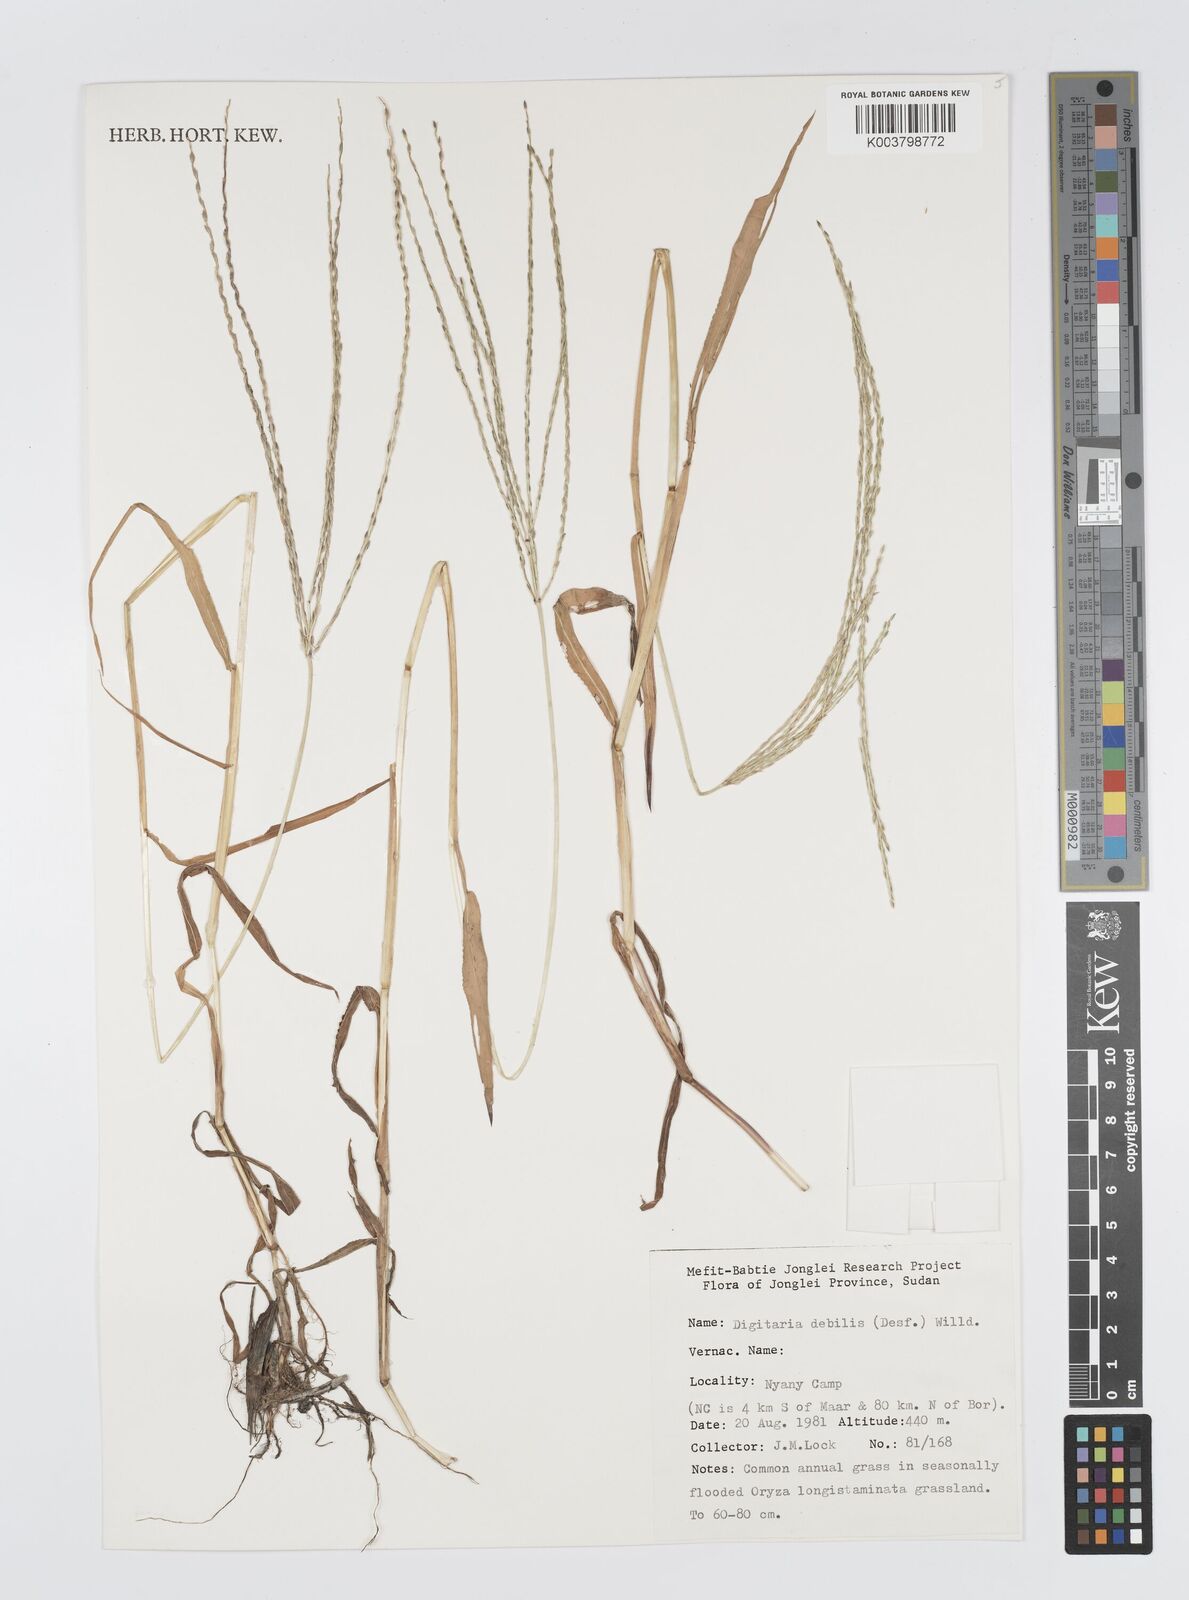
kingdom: Plantae
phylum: Tracheophyta
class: Liliopsida
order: Poales
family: Poaceae
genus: Digitaria
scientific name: Digitaria debilis
